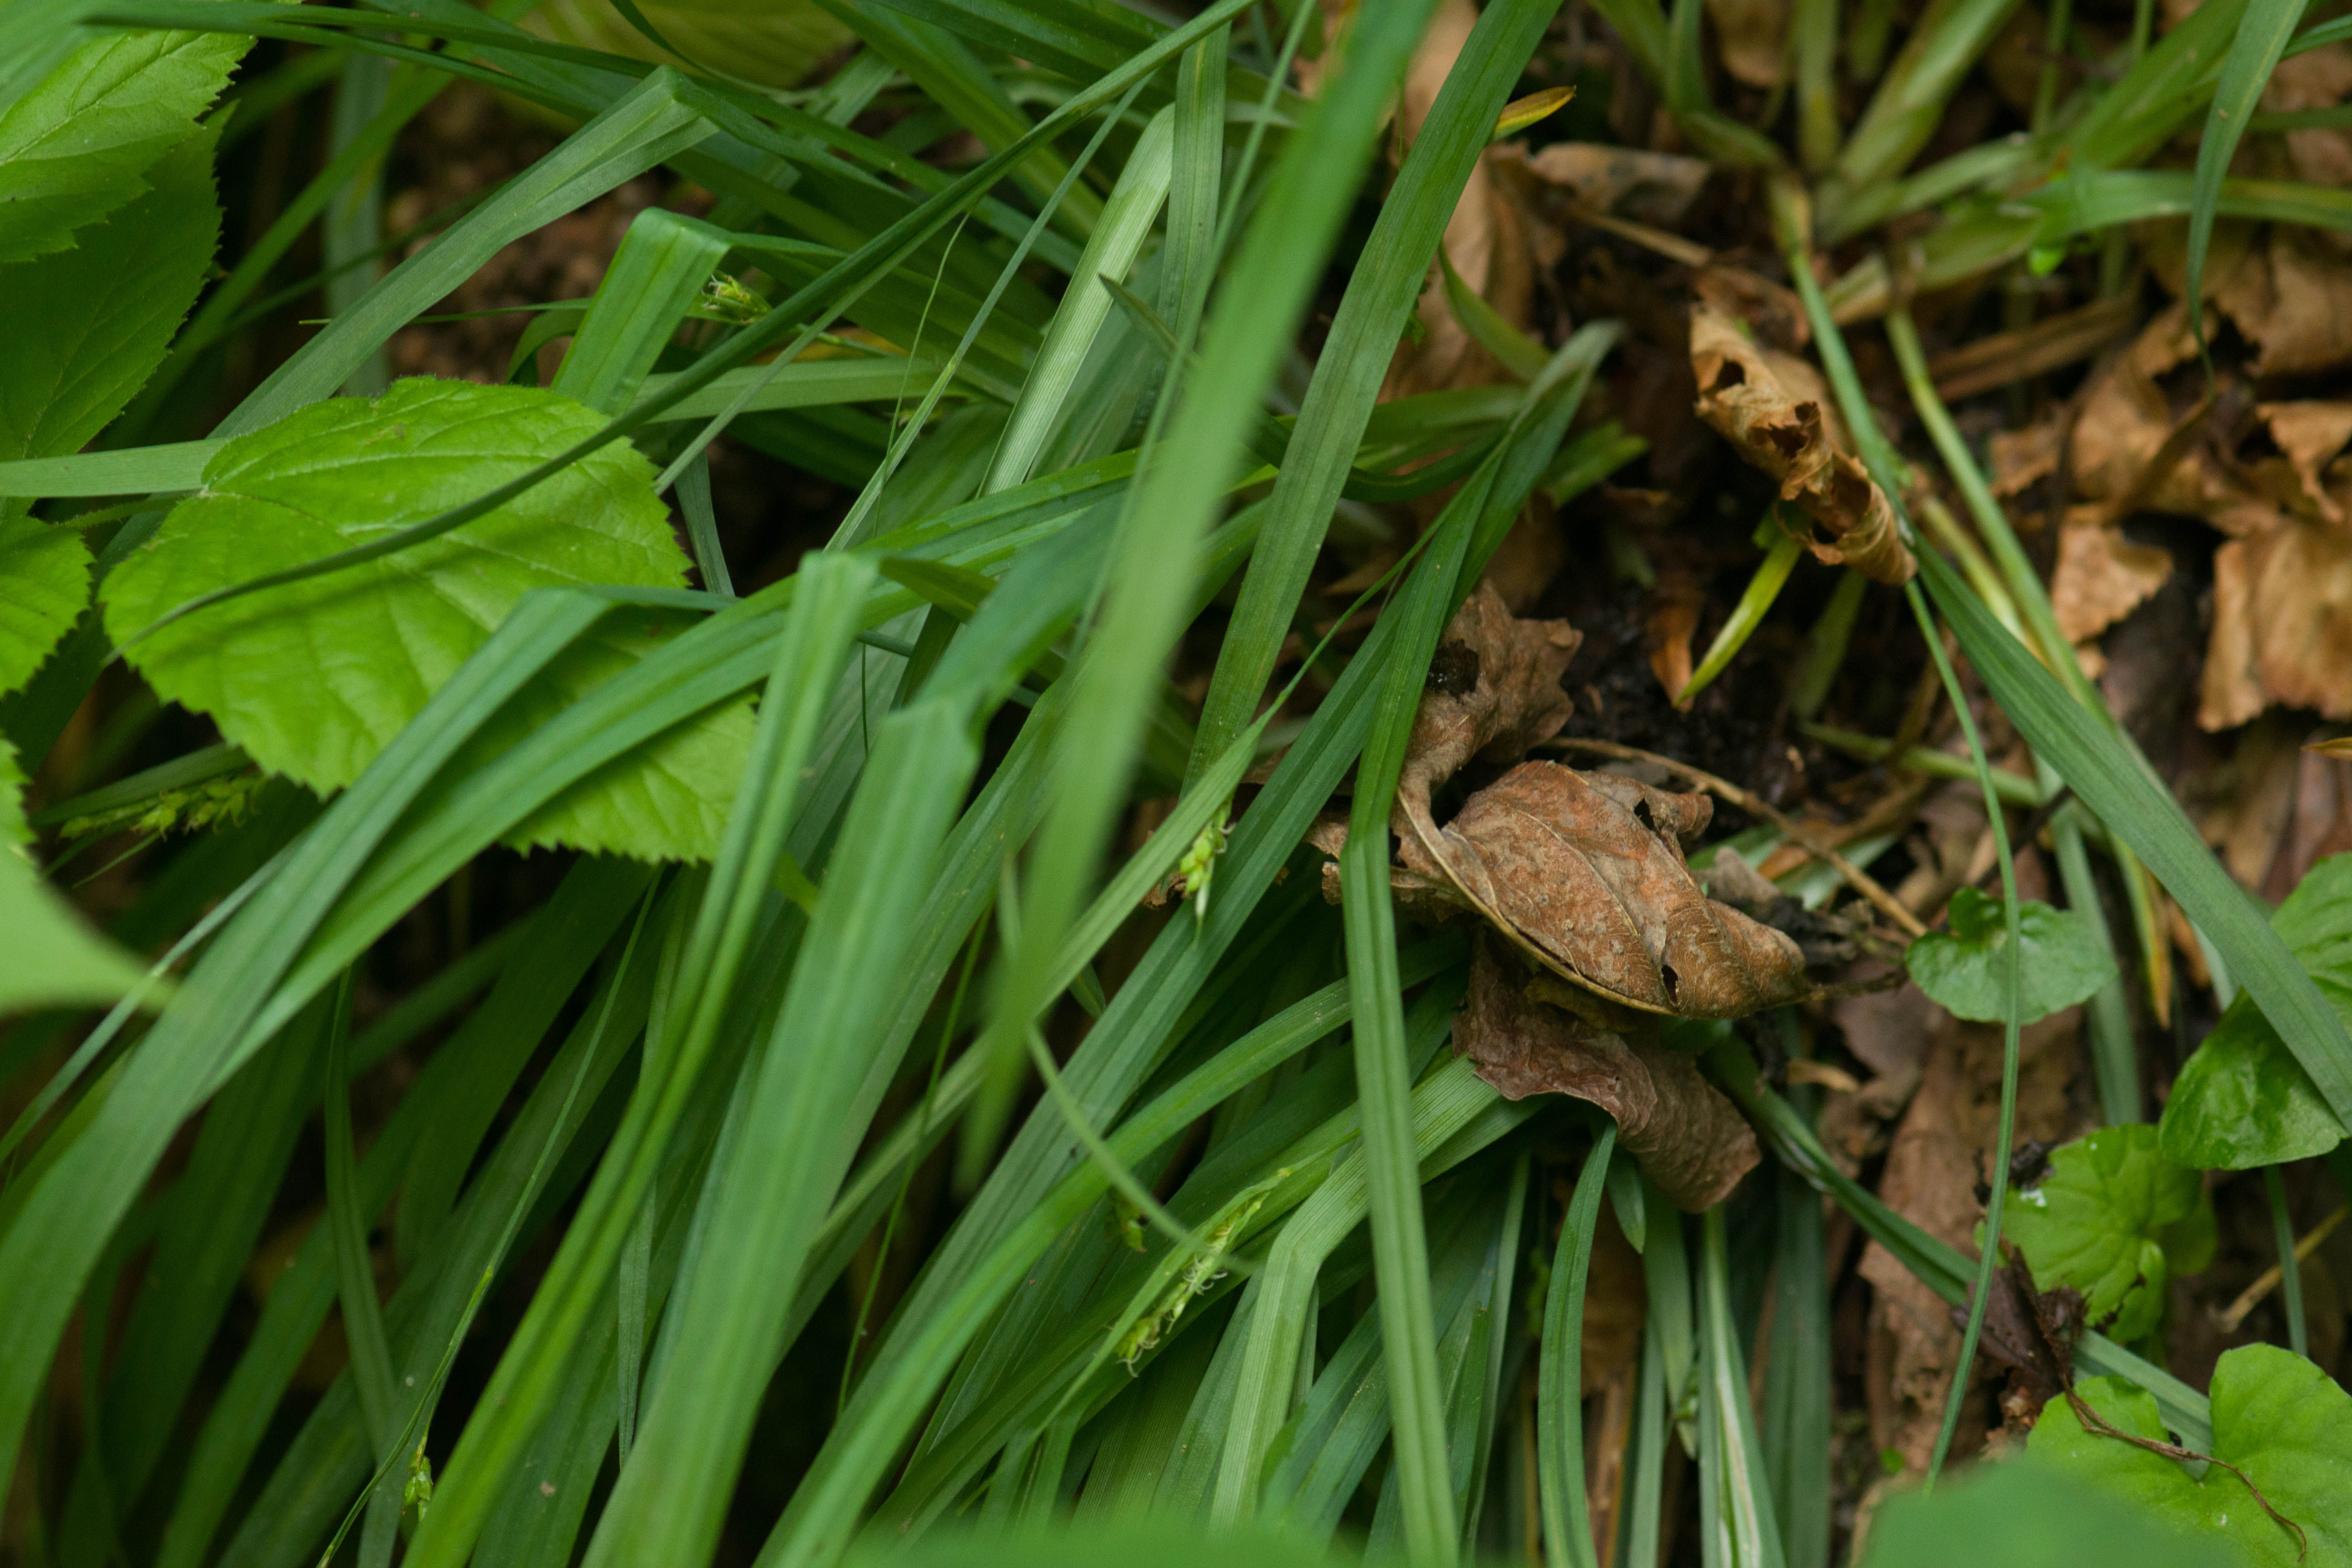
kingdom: Plantae
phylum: Tracheophyta
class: Liliopsida
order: Poales
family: Cyperaceae
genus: Carex
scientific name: Carex laxiculmis
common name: Spreading sedge
